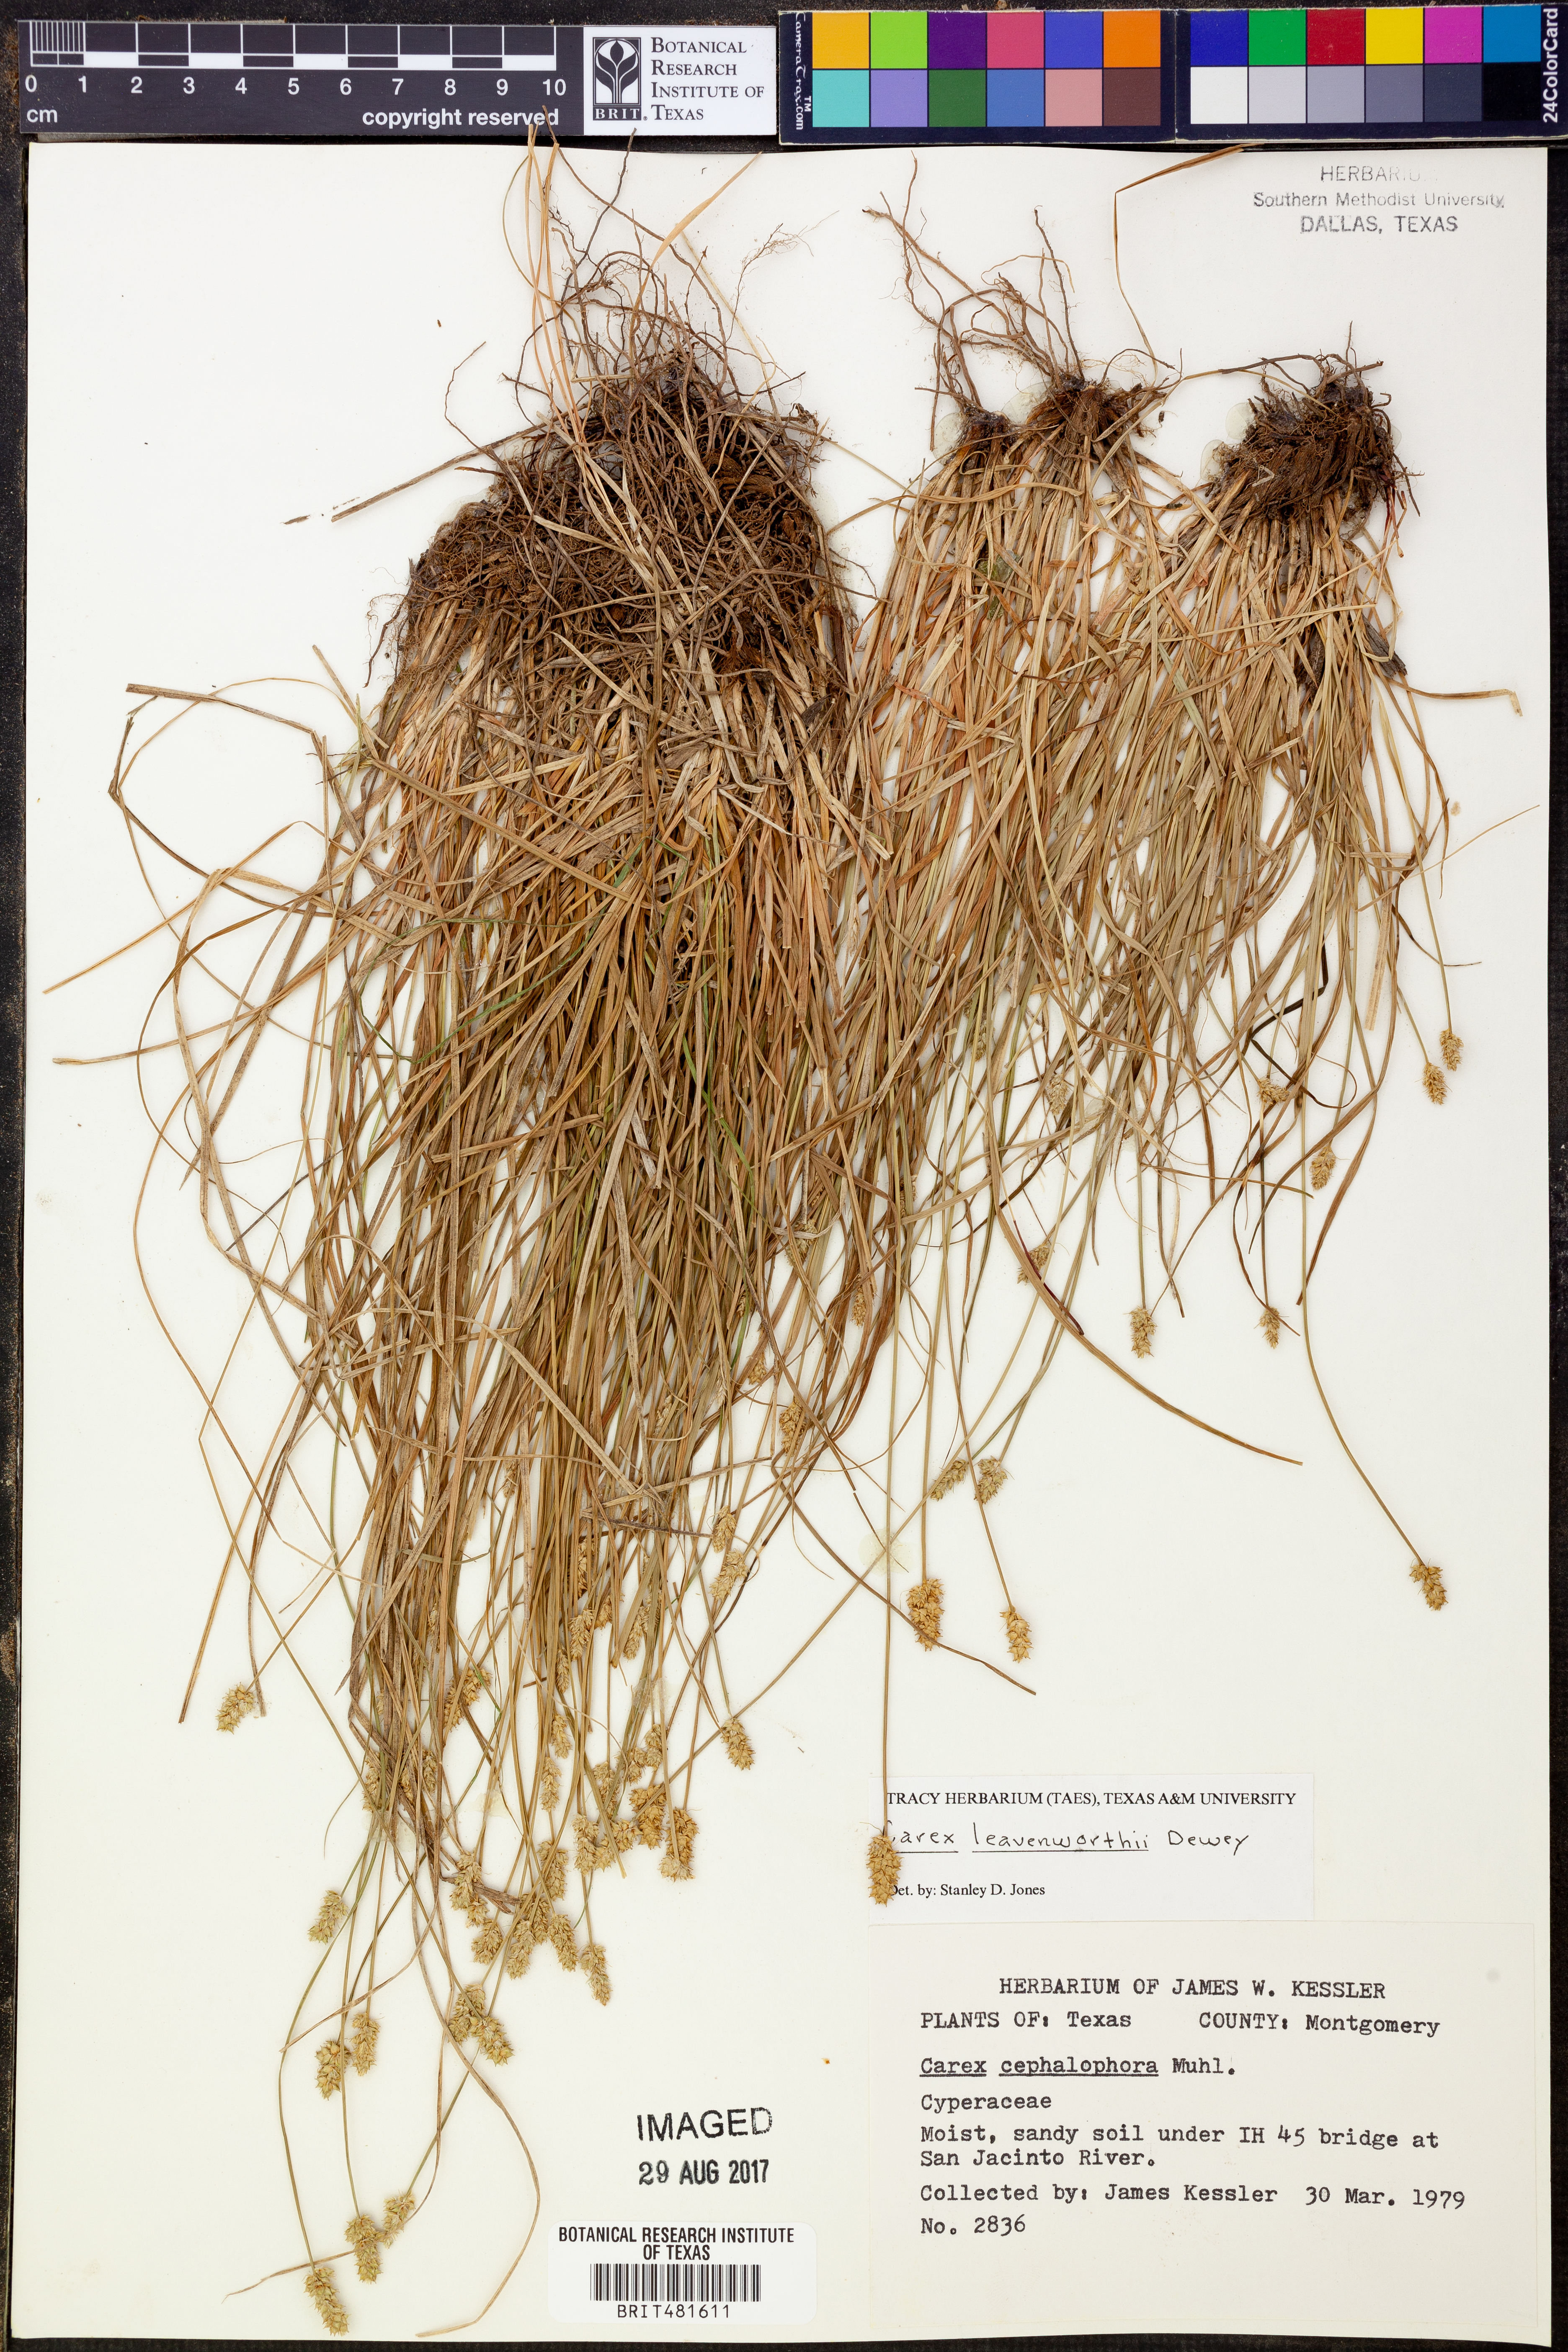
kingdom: Plantae
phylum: Tracheophyta
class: Liliopsida
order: Poales
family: Cyperaceae
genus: Carex
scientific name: Carex leavenworthii
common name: Leavenworth's bracted sedge
